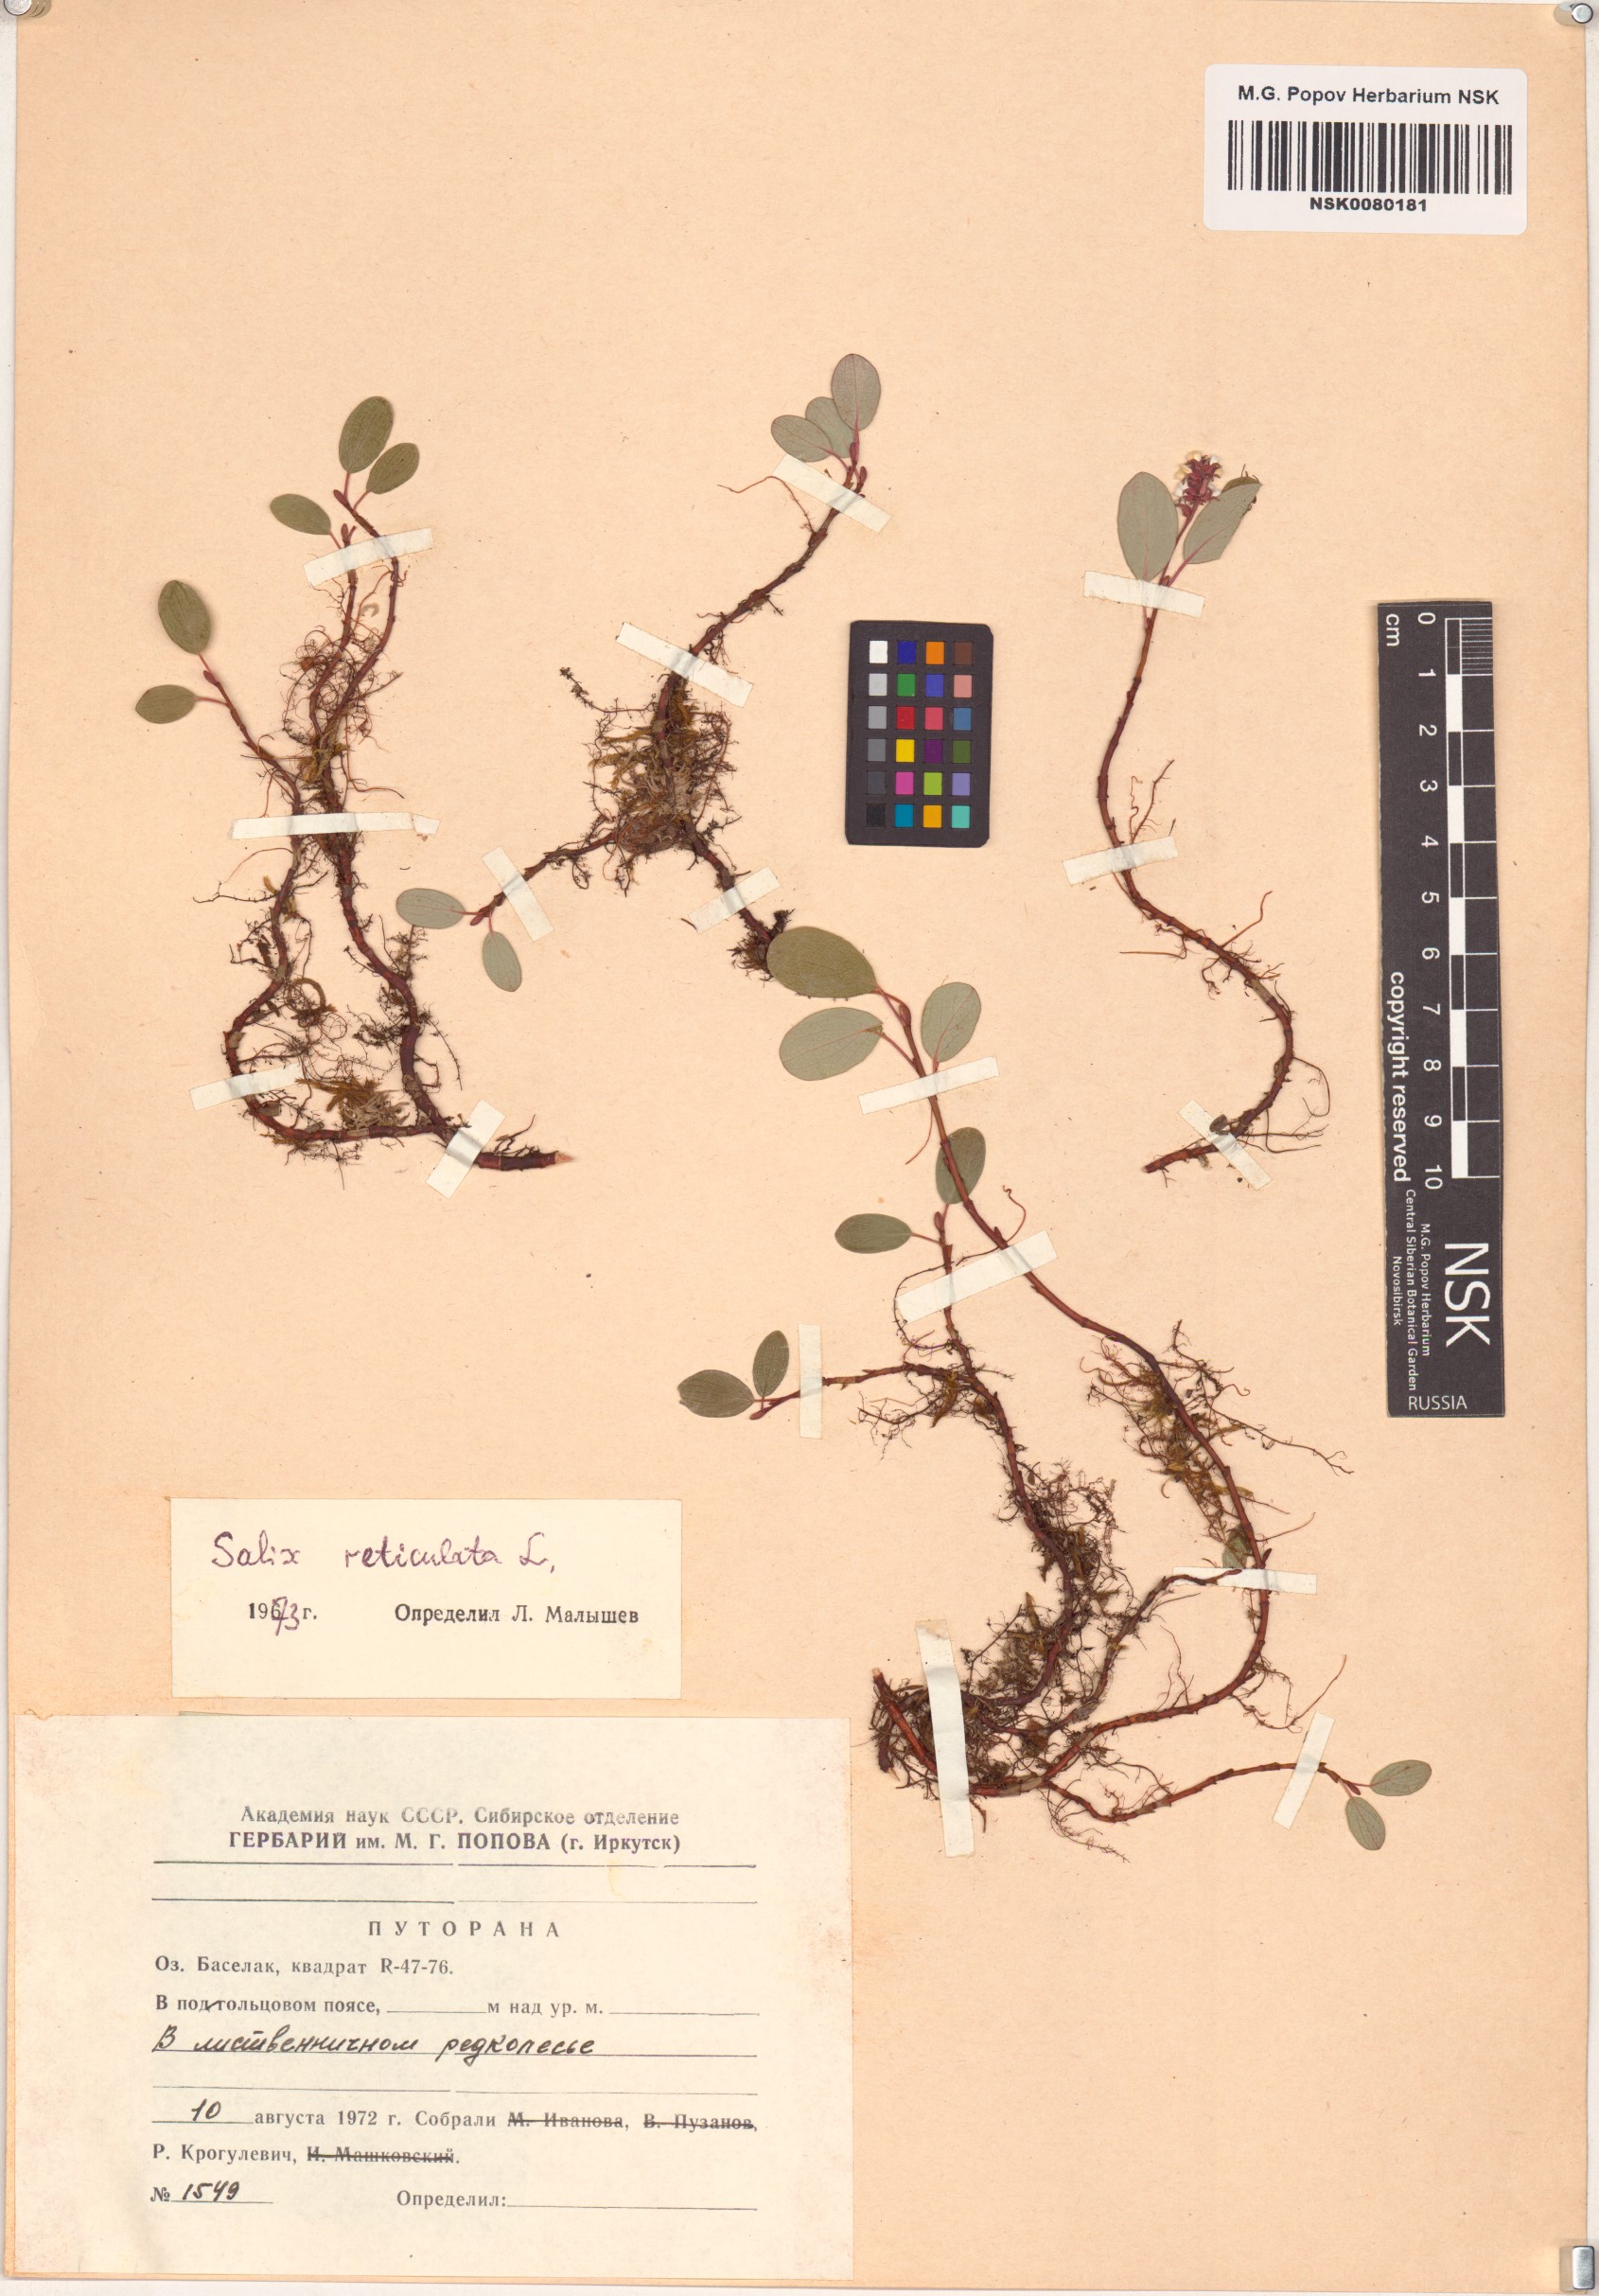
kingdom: Plantae
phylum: Tracheophyta
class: Magnoliopsida
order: Malpighiales
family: Salicaceae
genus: Salix
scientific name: Salix reticulata
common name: Net-leaved willow
